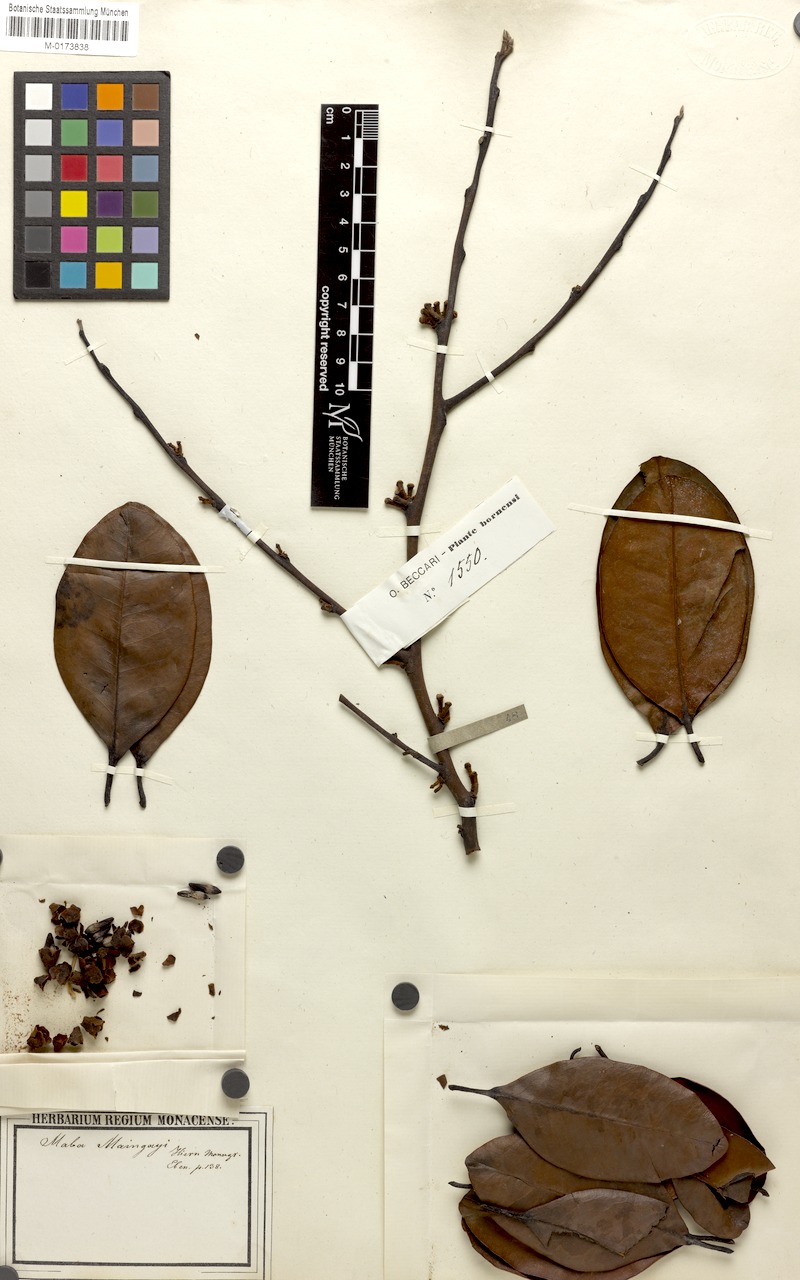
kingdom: Plantae
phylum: Tracheophyta
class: Magnoliopsida
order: Ericales
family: Ebenaceae
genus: Diospyros
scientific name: Diospyros maingayi
